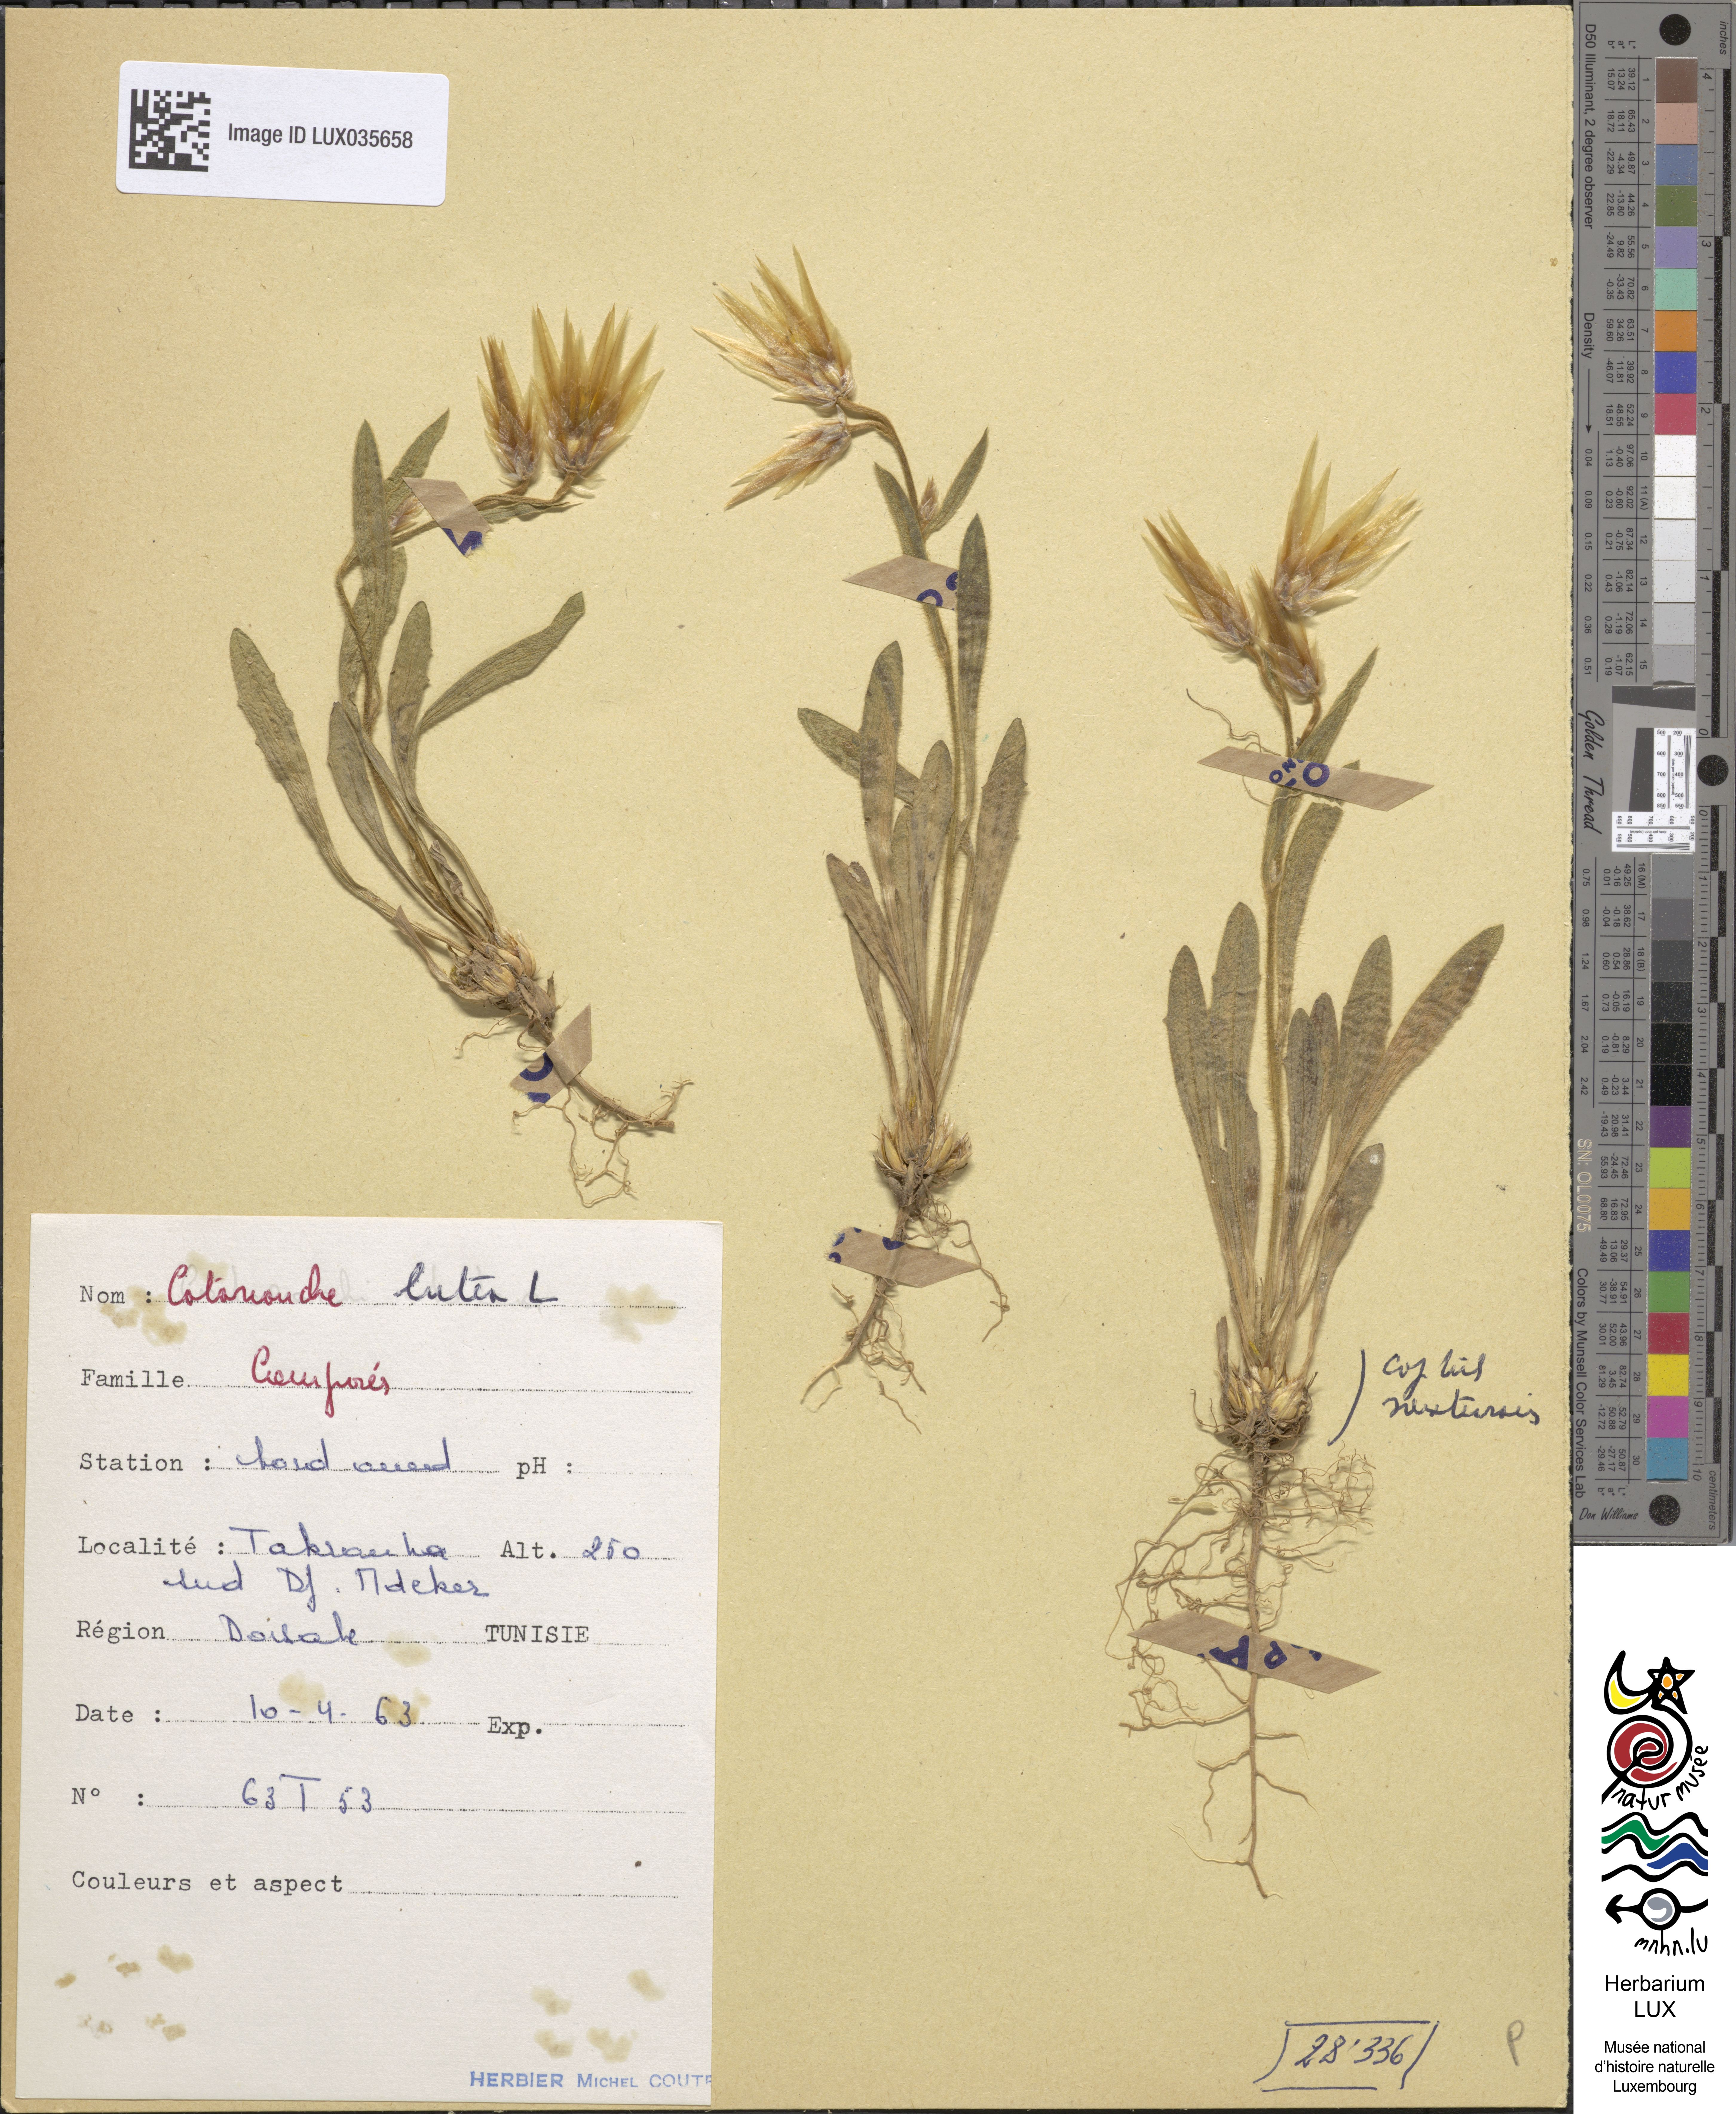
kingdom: Plantae
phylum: Tracheophyta
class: Magnoliopsida
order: Asterales
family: Asteraceae
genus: Catananche
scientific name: Catananche lutea
